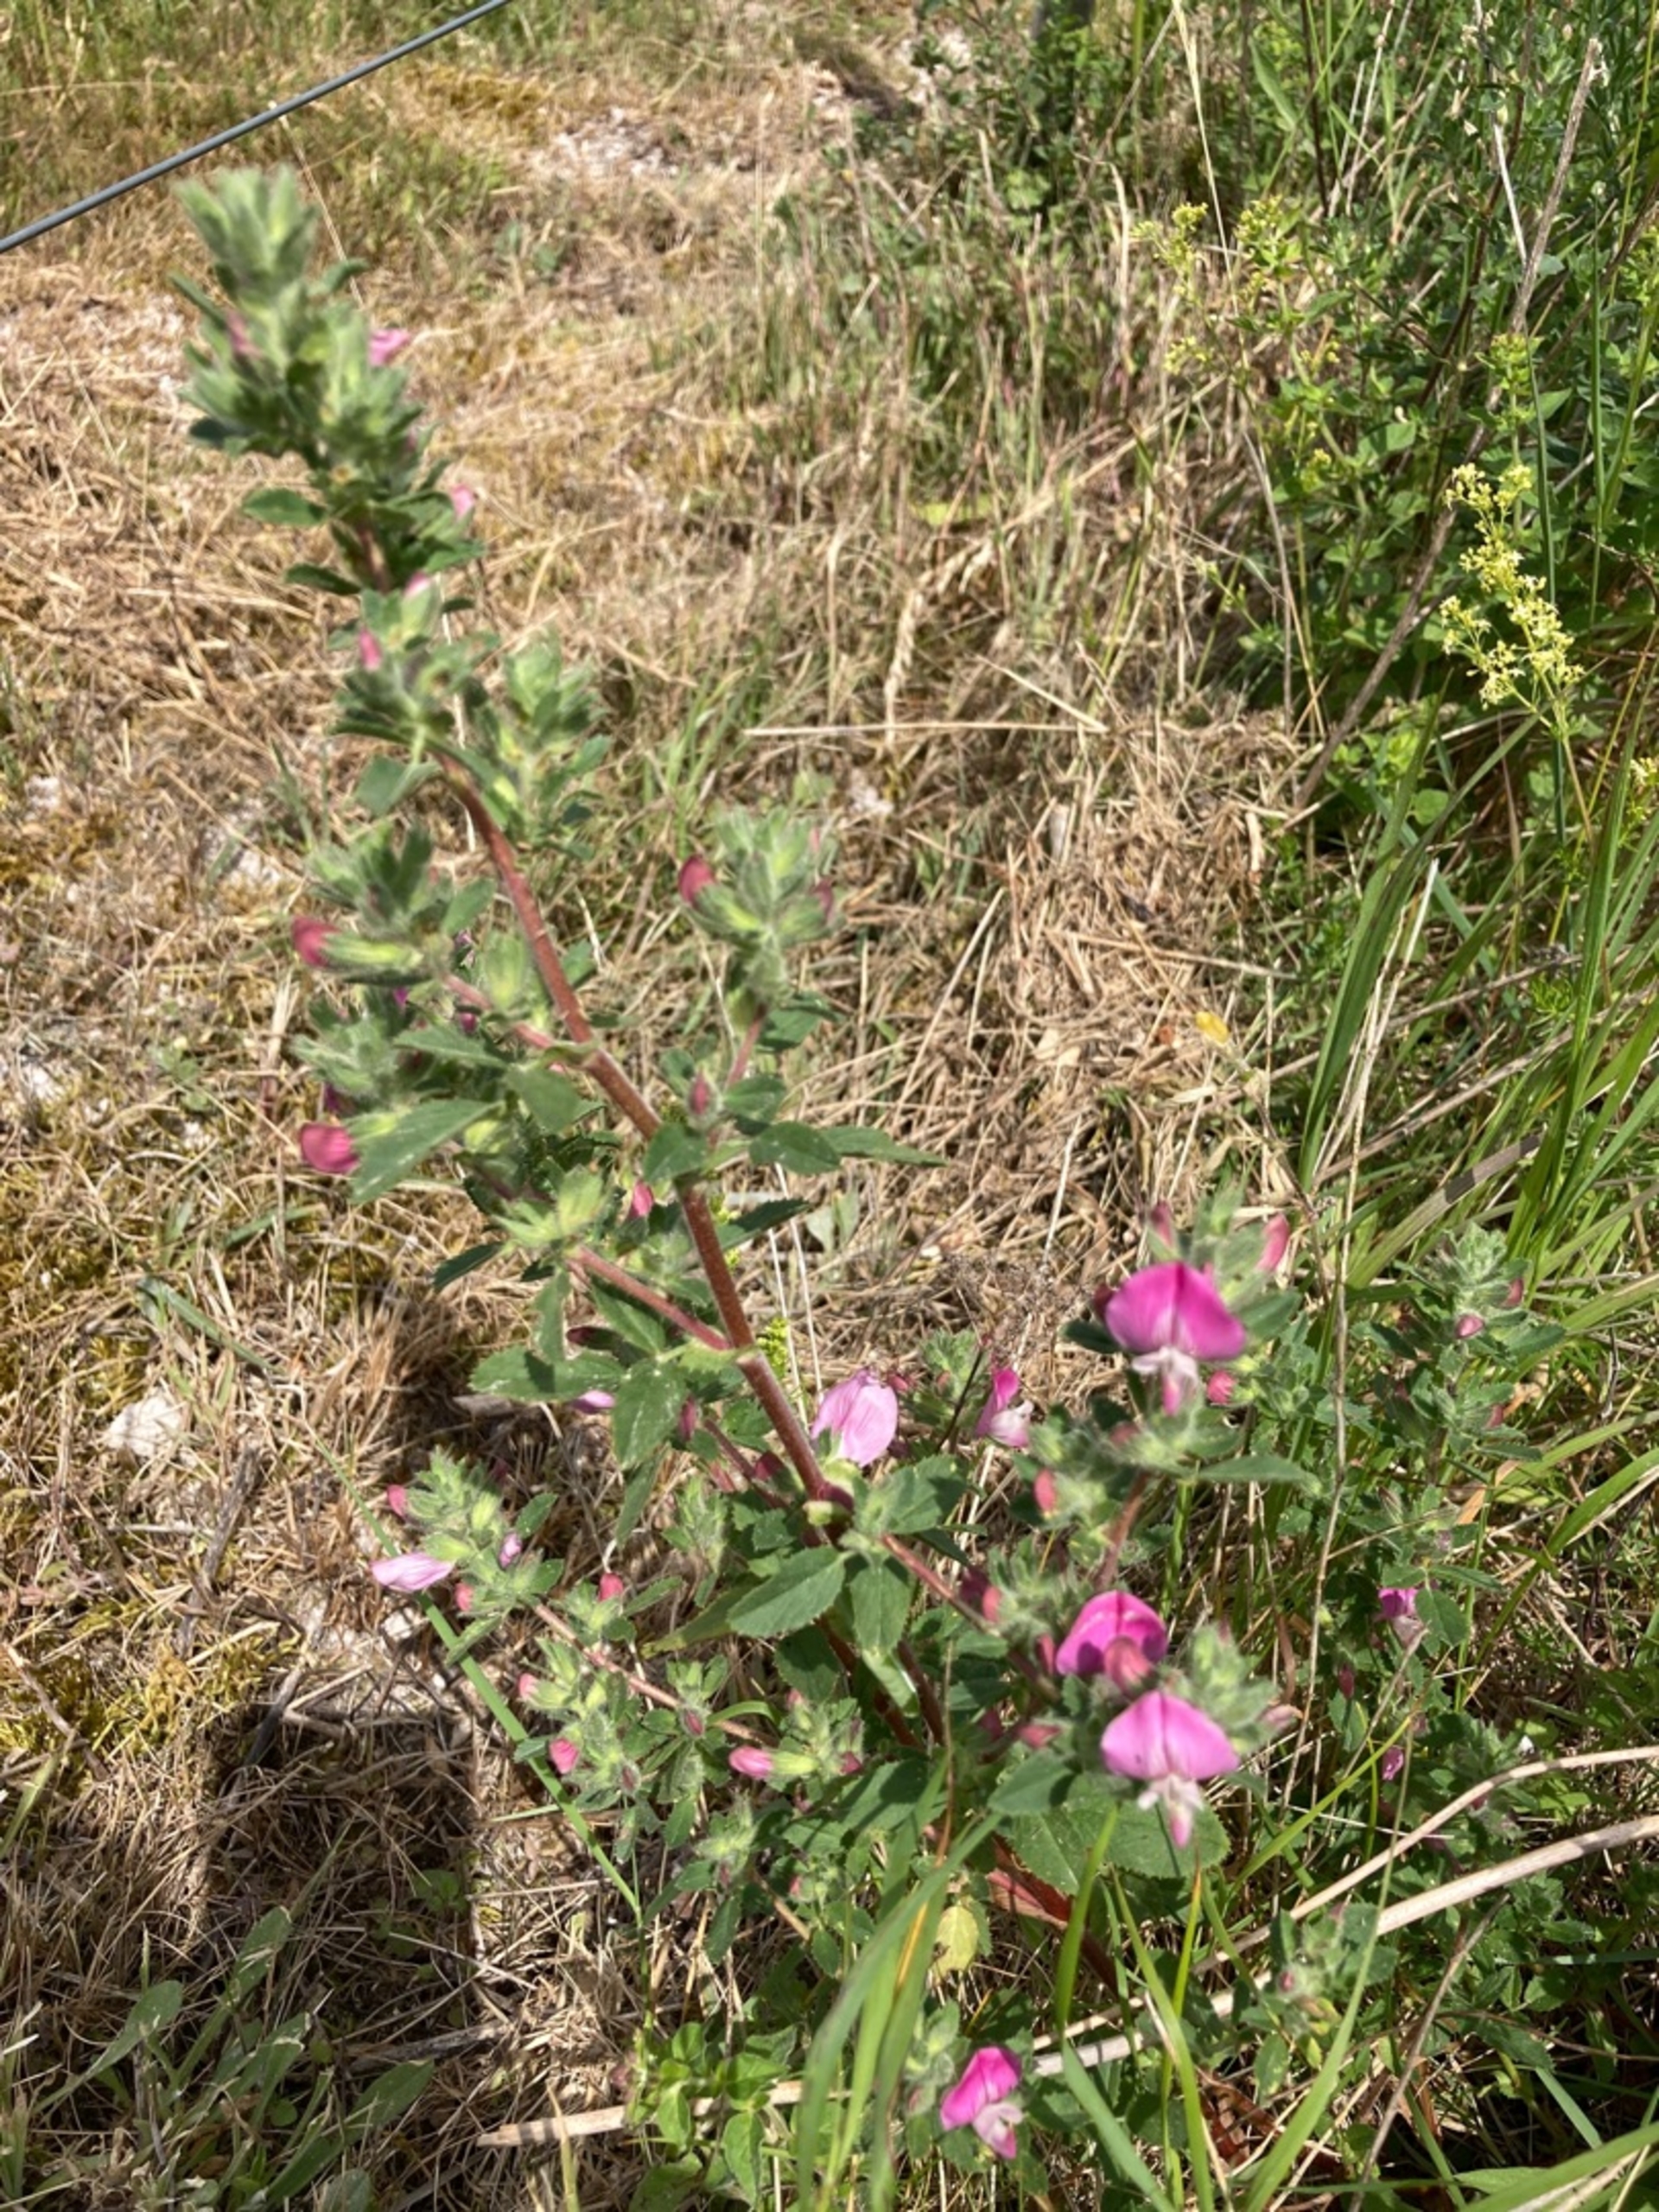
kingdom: Plantae
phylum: Tracheophyta
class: Magnoliopsida
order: Fabales
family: Fabaceae
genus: Ononis
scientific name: Ononis spinosa
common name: Krageklo
